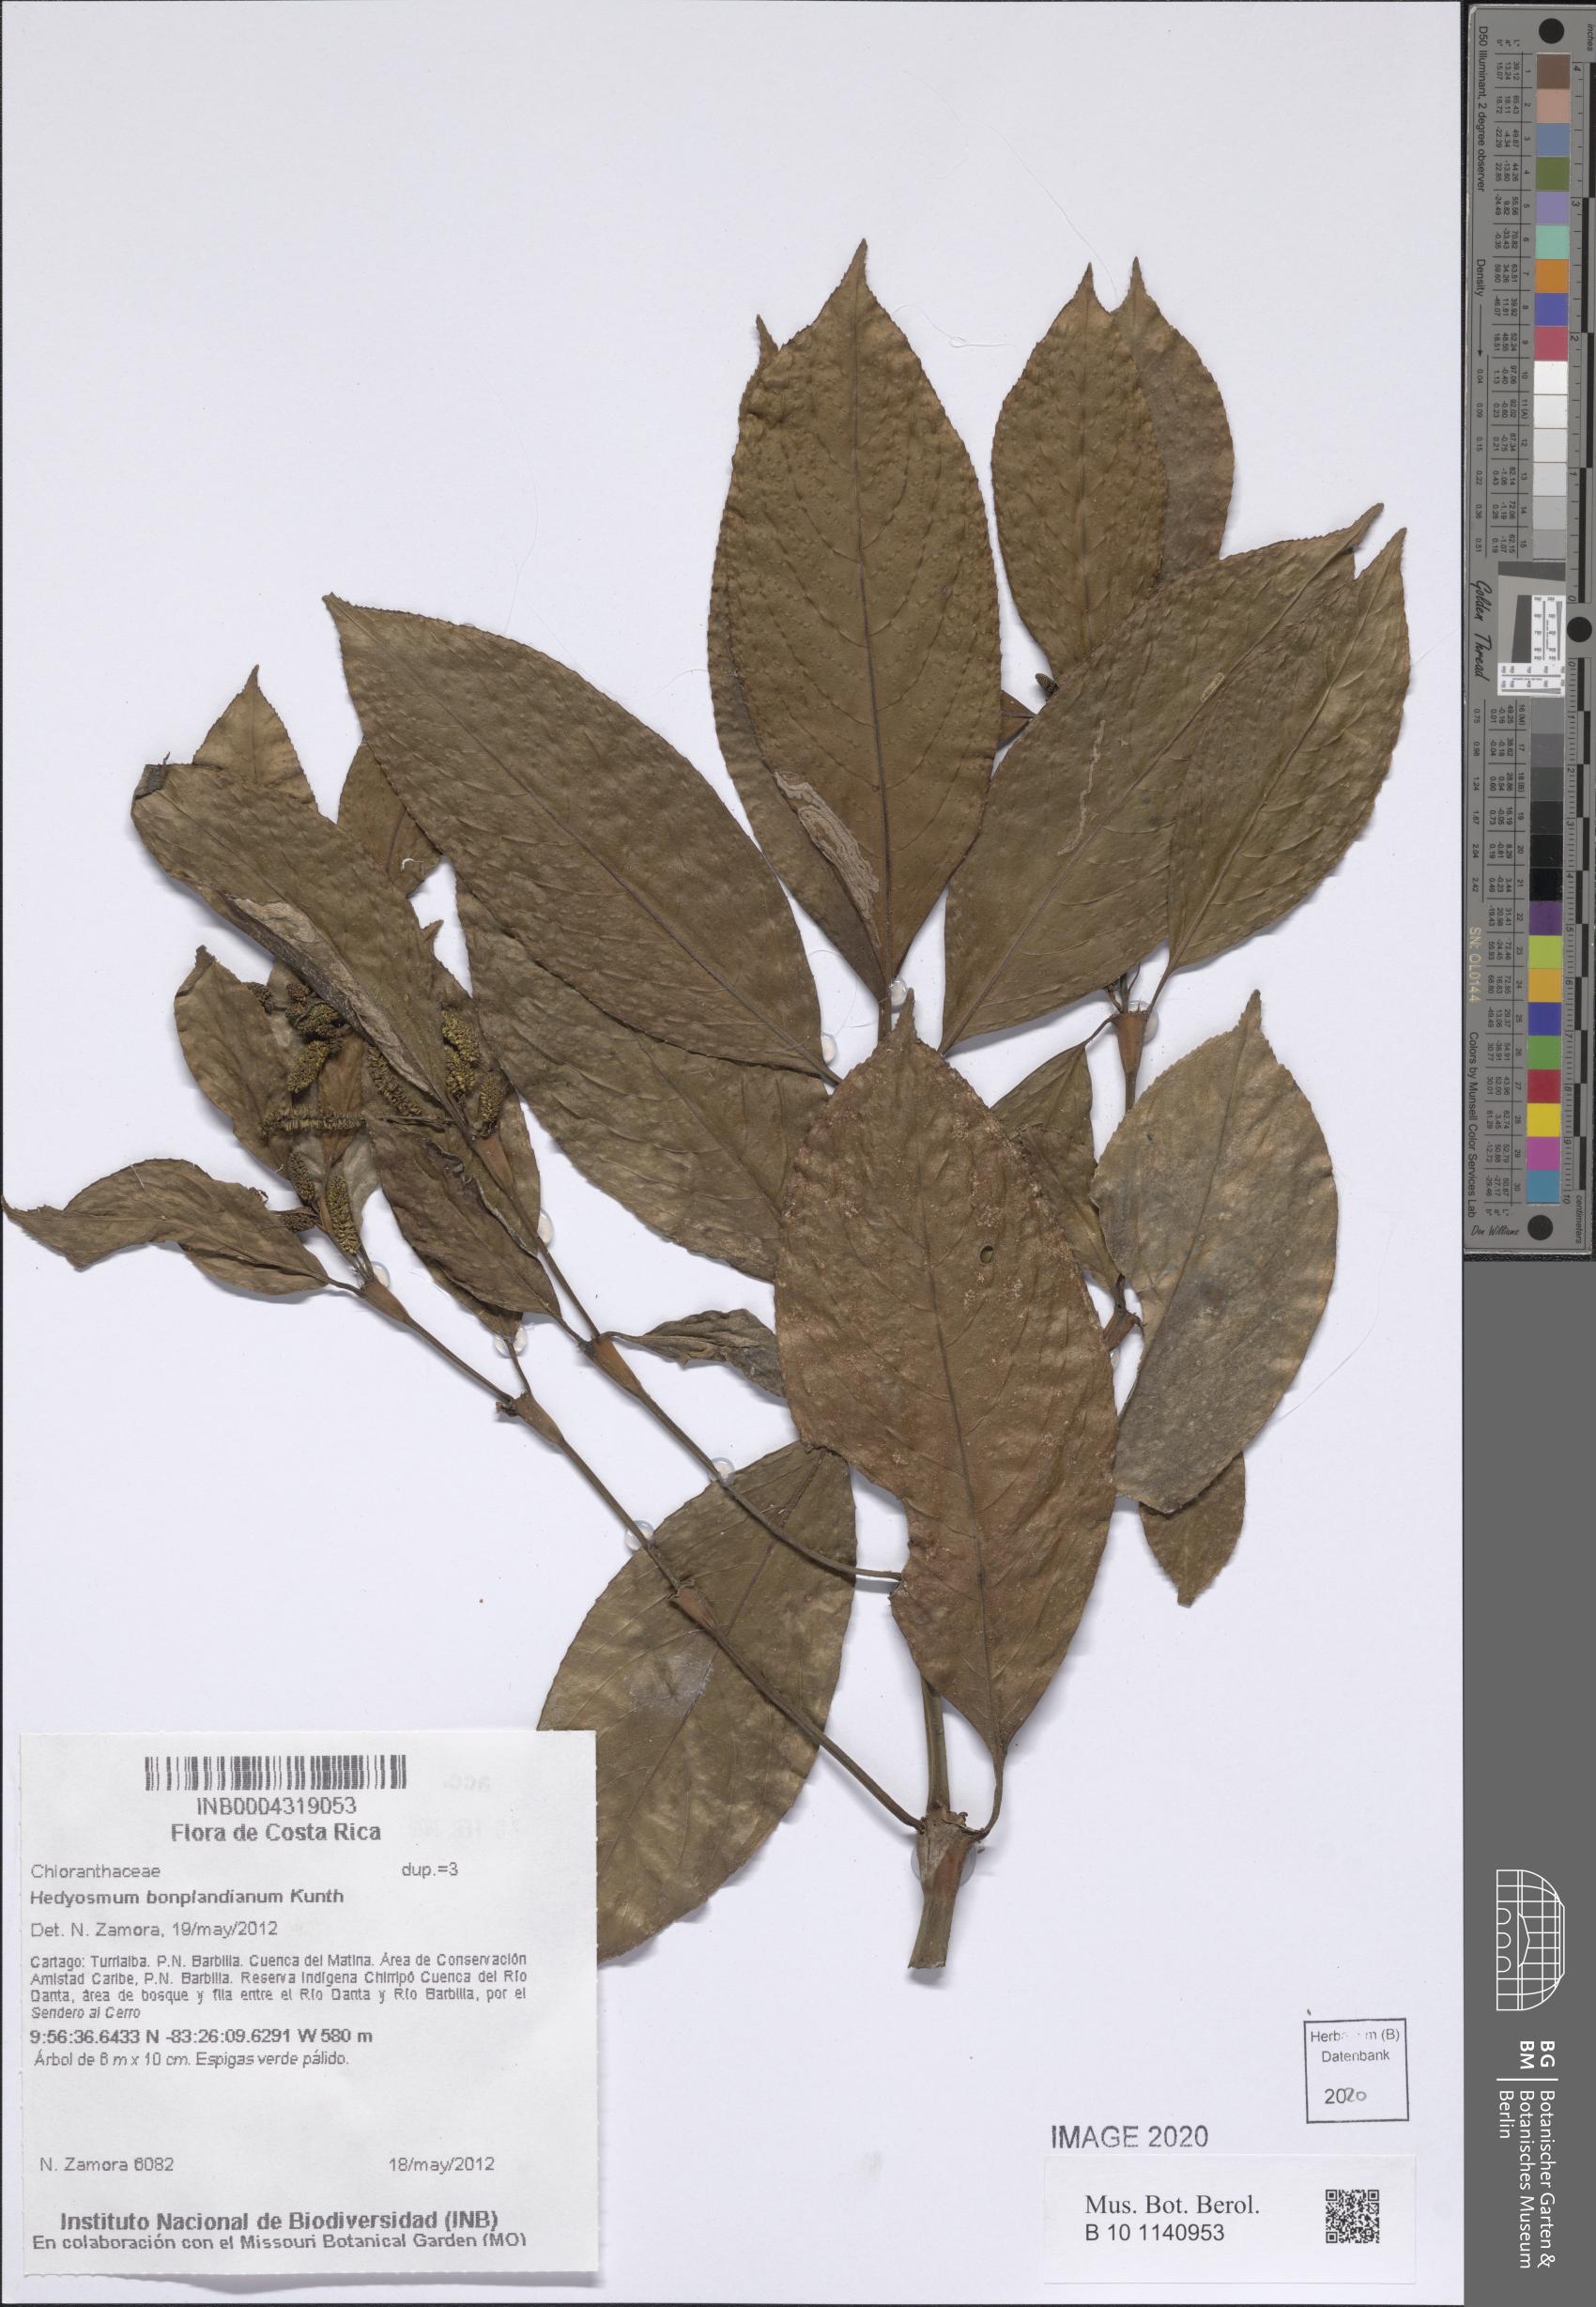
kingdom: Plantae
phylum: Tracheophyta
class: Magnoliopsida
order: Chloranthales
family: Chloranthaceae
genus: Hedyosmum
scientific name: Hedyosmum bonplandianum
